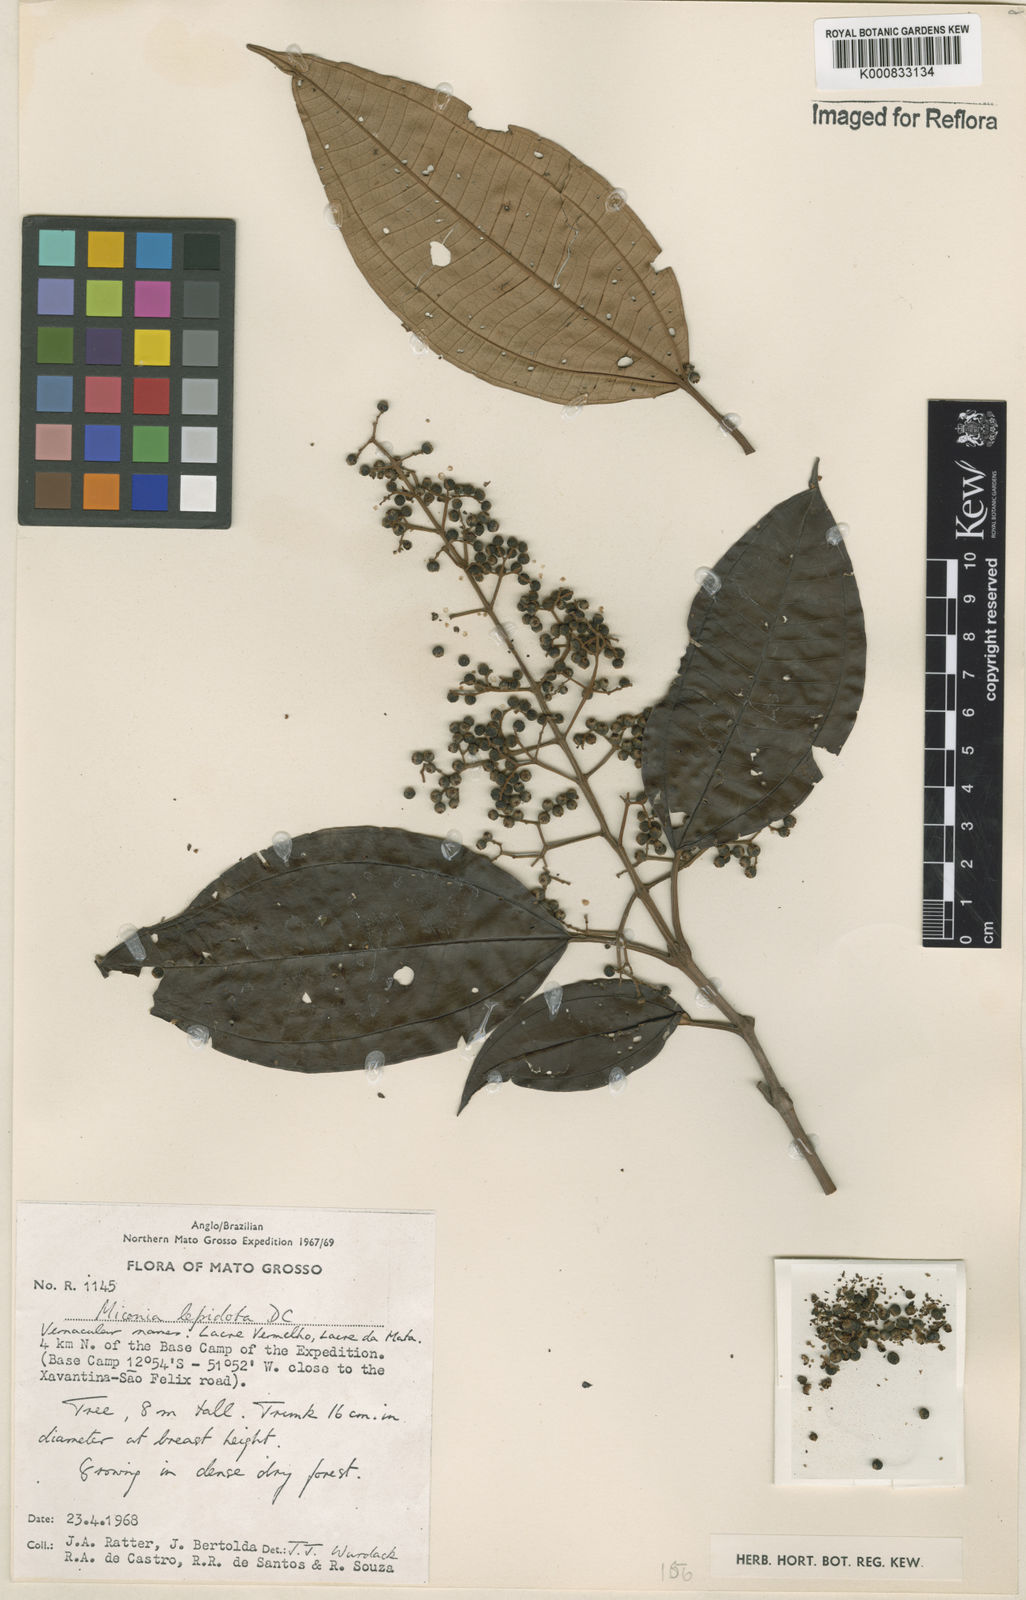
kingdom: Plantae
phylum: Tracheophyta
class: Magnoliopsida
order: Myrtales
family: Melastomataceae
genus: Miconia
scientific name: Miconia lepidota
